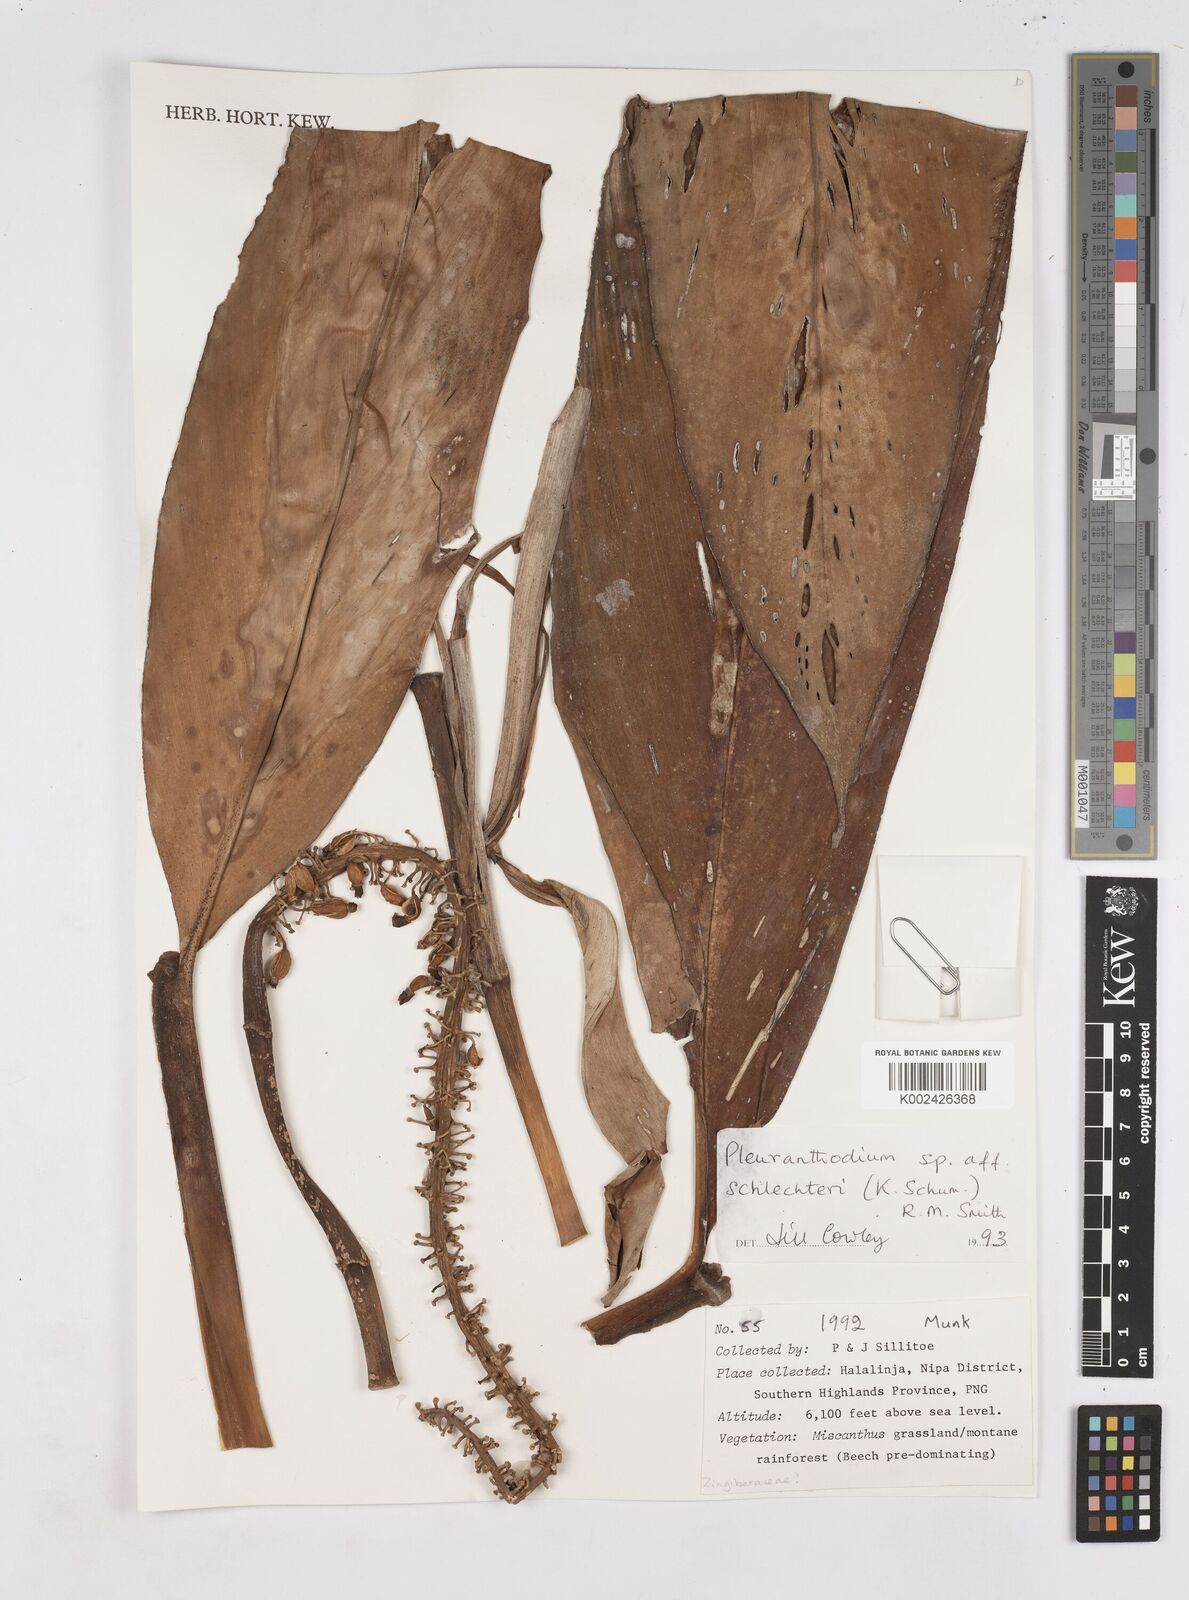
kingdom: Plantae
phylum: Tracheophyta
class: Liliopsida
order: Zingiberales
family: Zingiberaceae
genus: Pleuranthodium
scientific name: Pleuranthodium schlechteri
